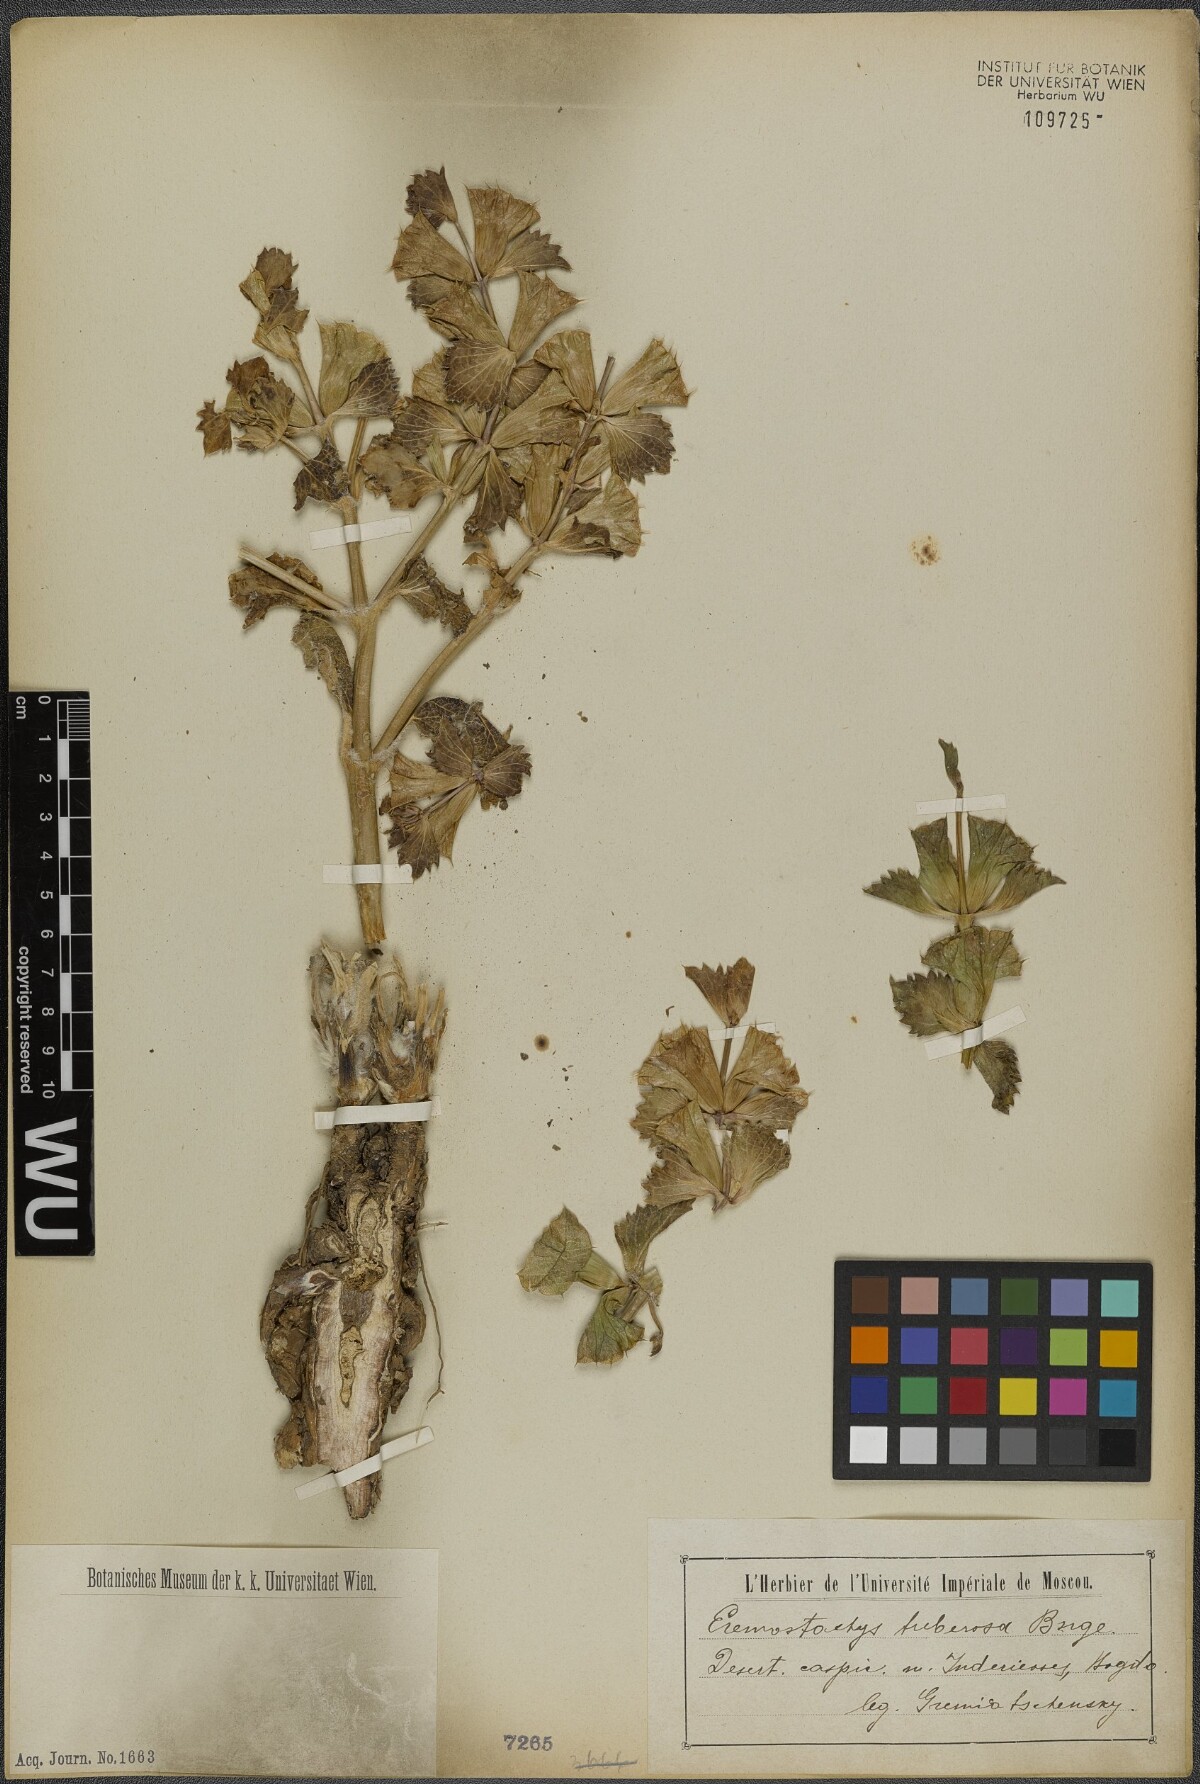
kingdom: Plantae
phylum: Tracheophyta
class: Magnoliopsida
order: Lamiales
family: Lamiaceae
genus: Phlomoides
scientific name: Phlomoides uralensis
